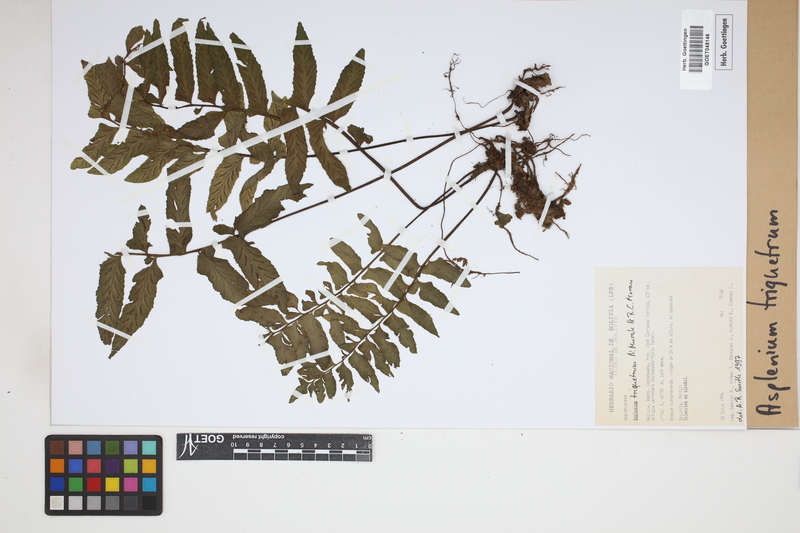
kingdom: Plantae
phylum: Tracheophyta
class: Polypodiopsida
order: Polypodiales
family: Aspleniaceae
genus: Hymenasplenium
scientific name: Hymenasplenium triquetrum
